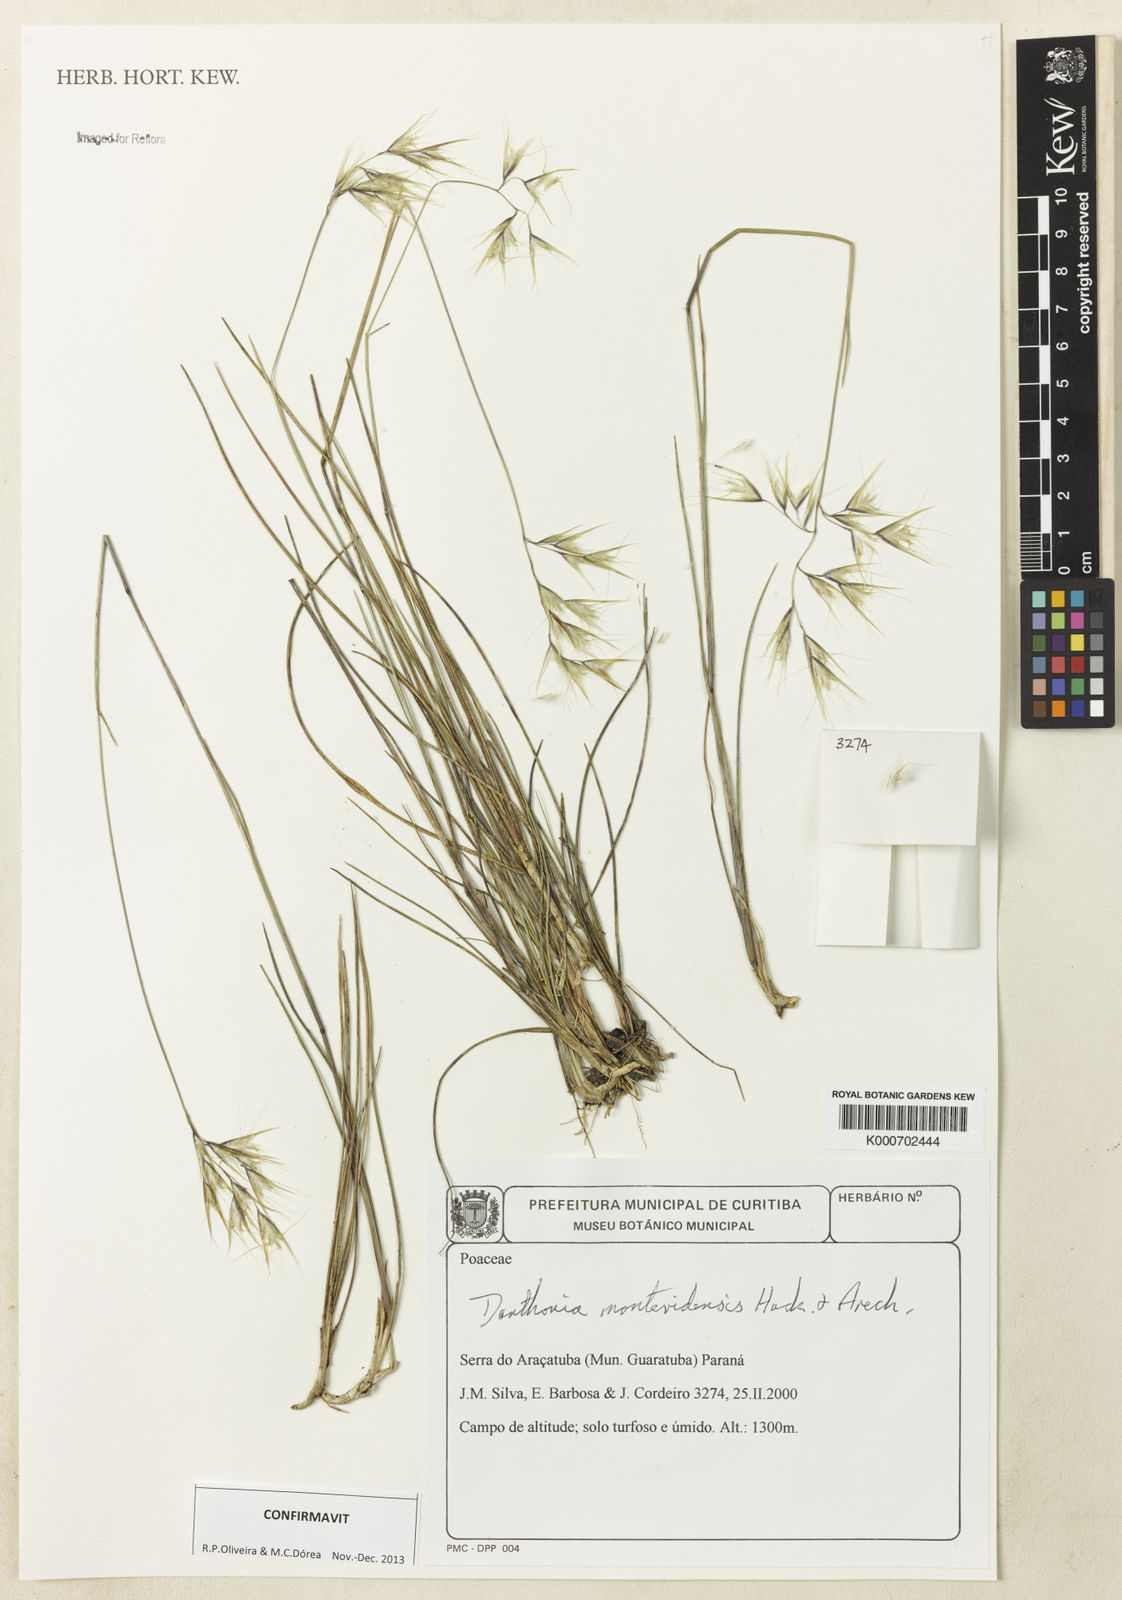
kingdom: Plantae
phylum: Tracheophyta
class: Liliopsida
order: Poales
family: Poaceae
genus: Danthonia
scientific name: Danthonia montevidensis
